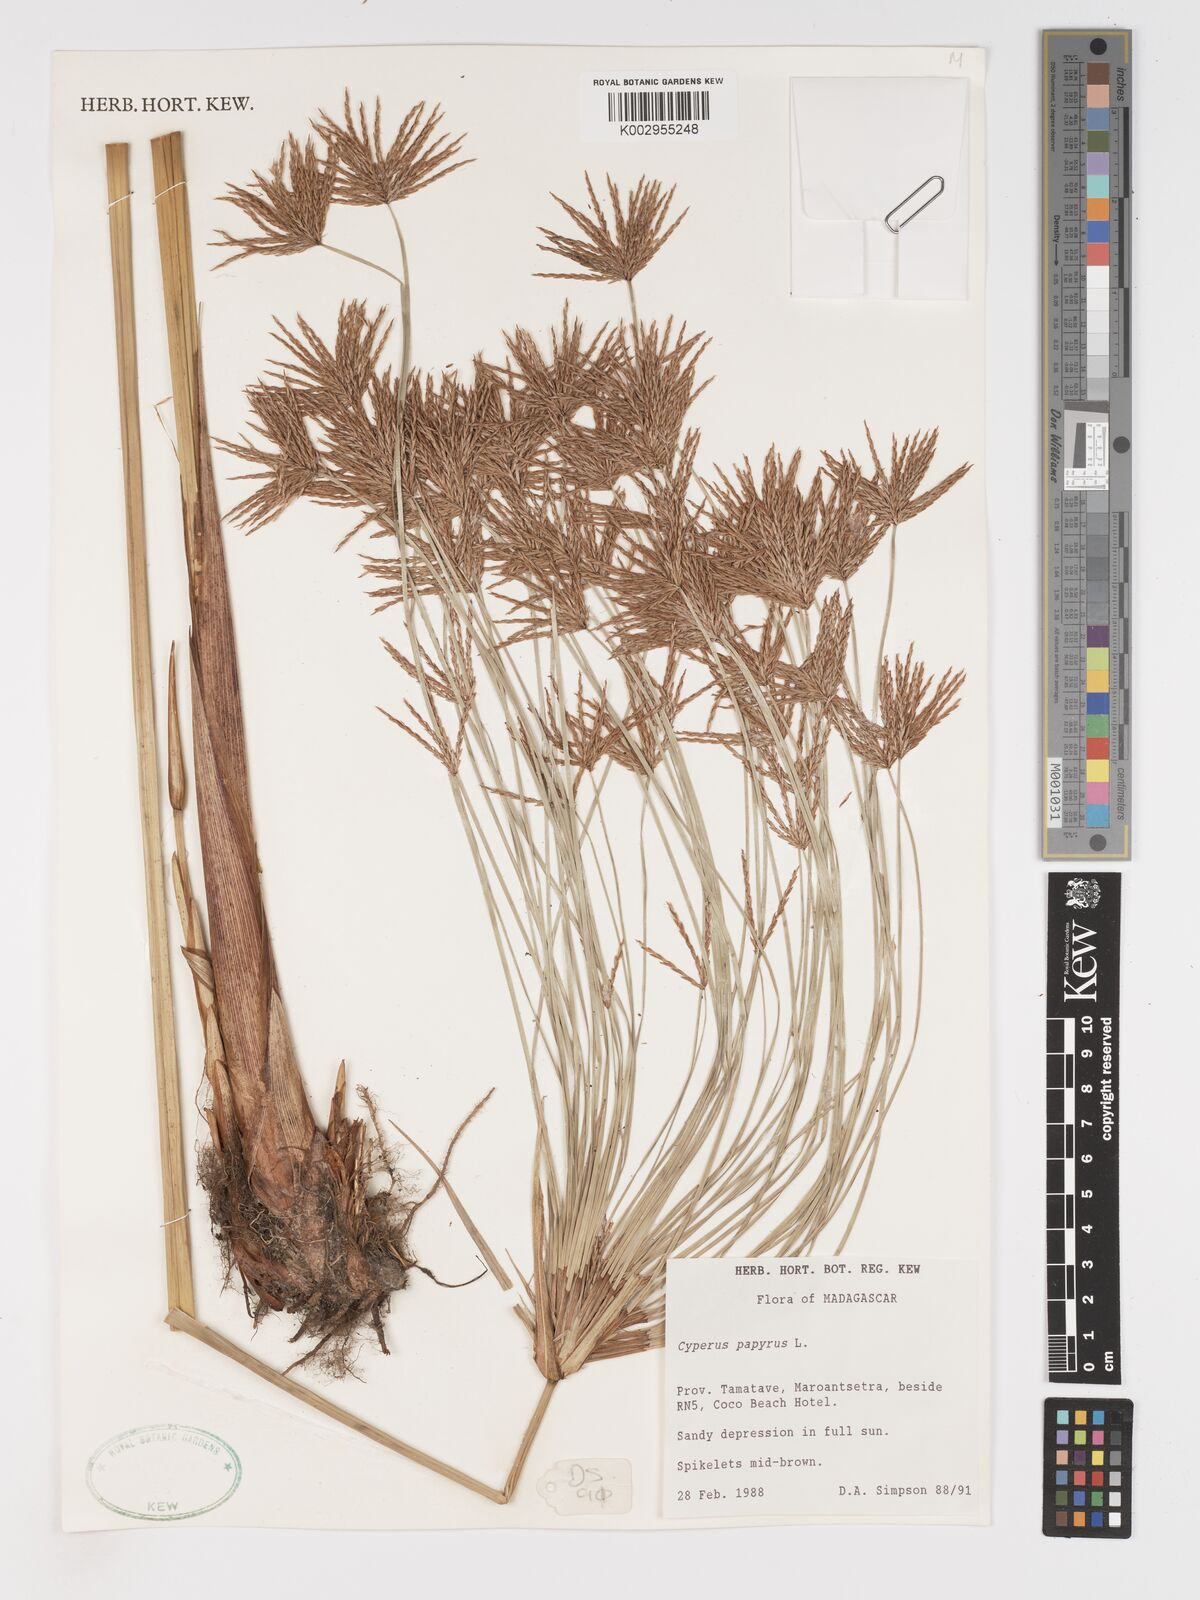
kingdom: Plantae
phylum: Tracheophyta
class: Liliopsida
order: Poales
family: Cyperaceae
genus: Cyperus
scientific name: Cyperus papyrus
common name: Papyrus
